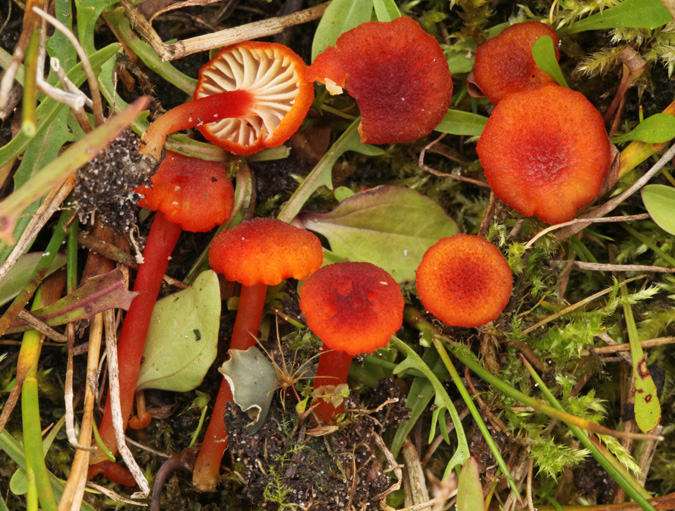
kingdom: Fungi
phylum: Basidiomycota
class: Agaricomycetes
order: Agaricales
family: Hygrophoraceae
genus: Hygrocybe
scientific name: Hygrocybe coccineocrenata
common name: tørvemos-vokshat
